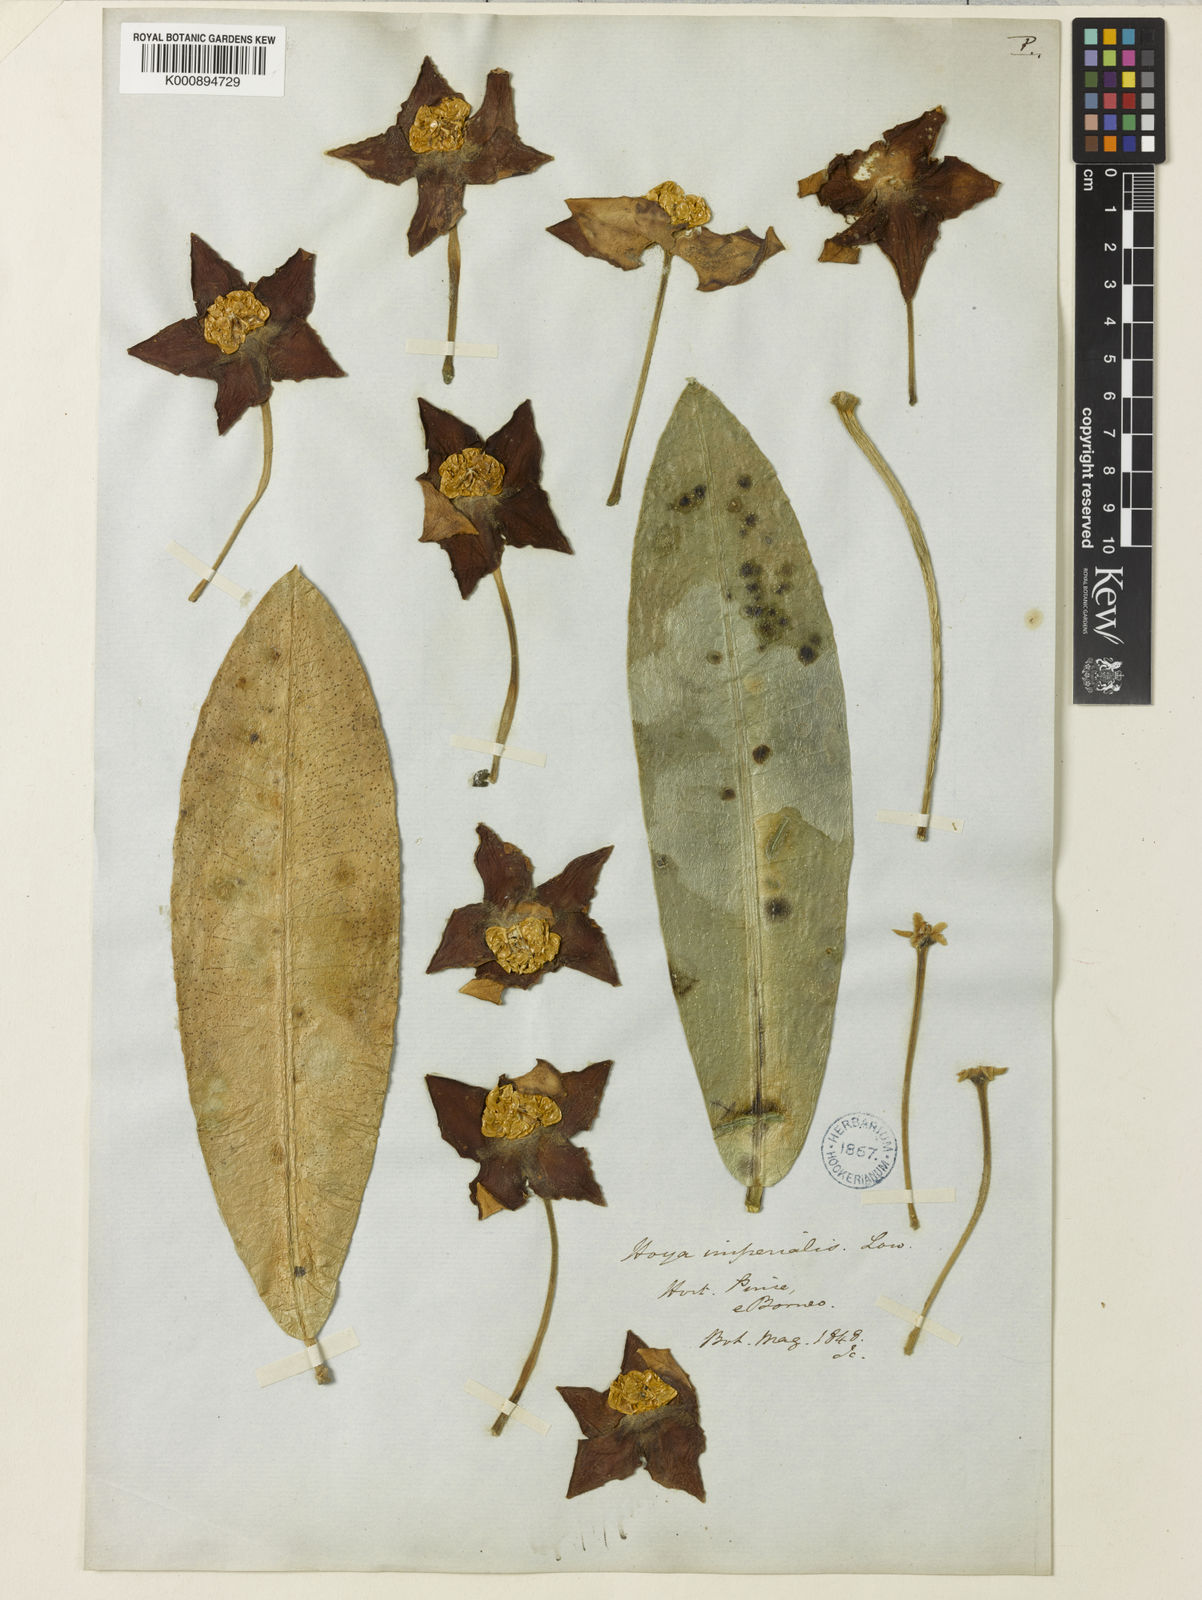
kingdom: Plantae
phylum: Tracheophyta
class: Magnoliopsida
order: Gentianales
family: Apocynaceae
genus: Hoya
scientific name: Hoya
